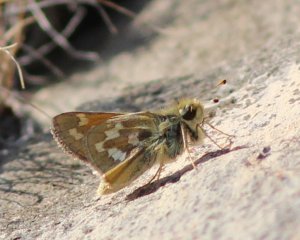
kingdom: Animalia
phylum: Arthropoda
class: Insecta
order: Lepidoptera
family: Hesperiidae
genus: Hesperia
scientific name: Hesperia comma
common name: Western Branded Skipper
